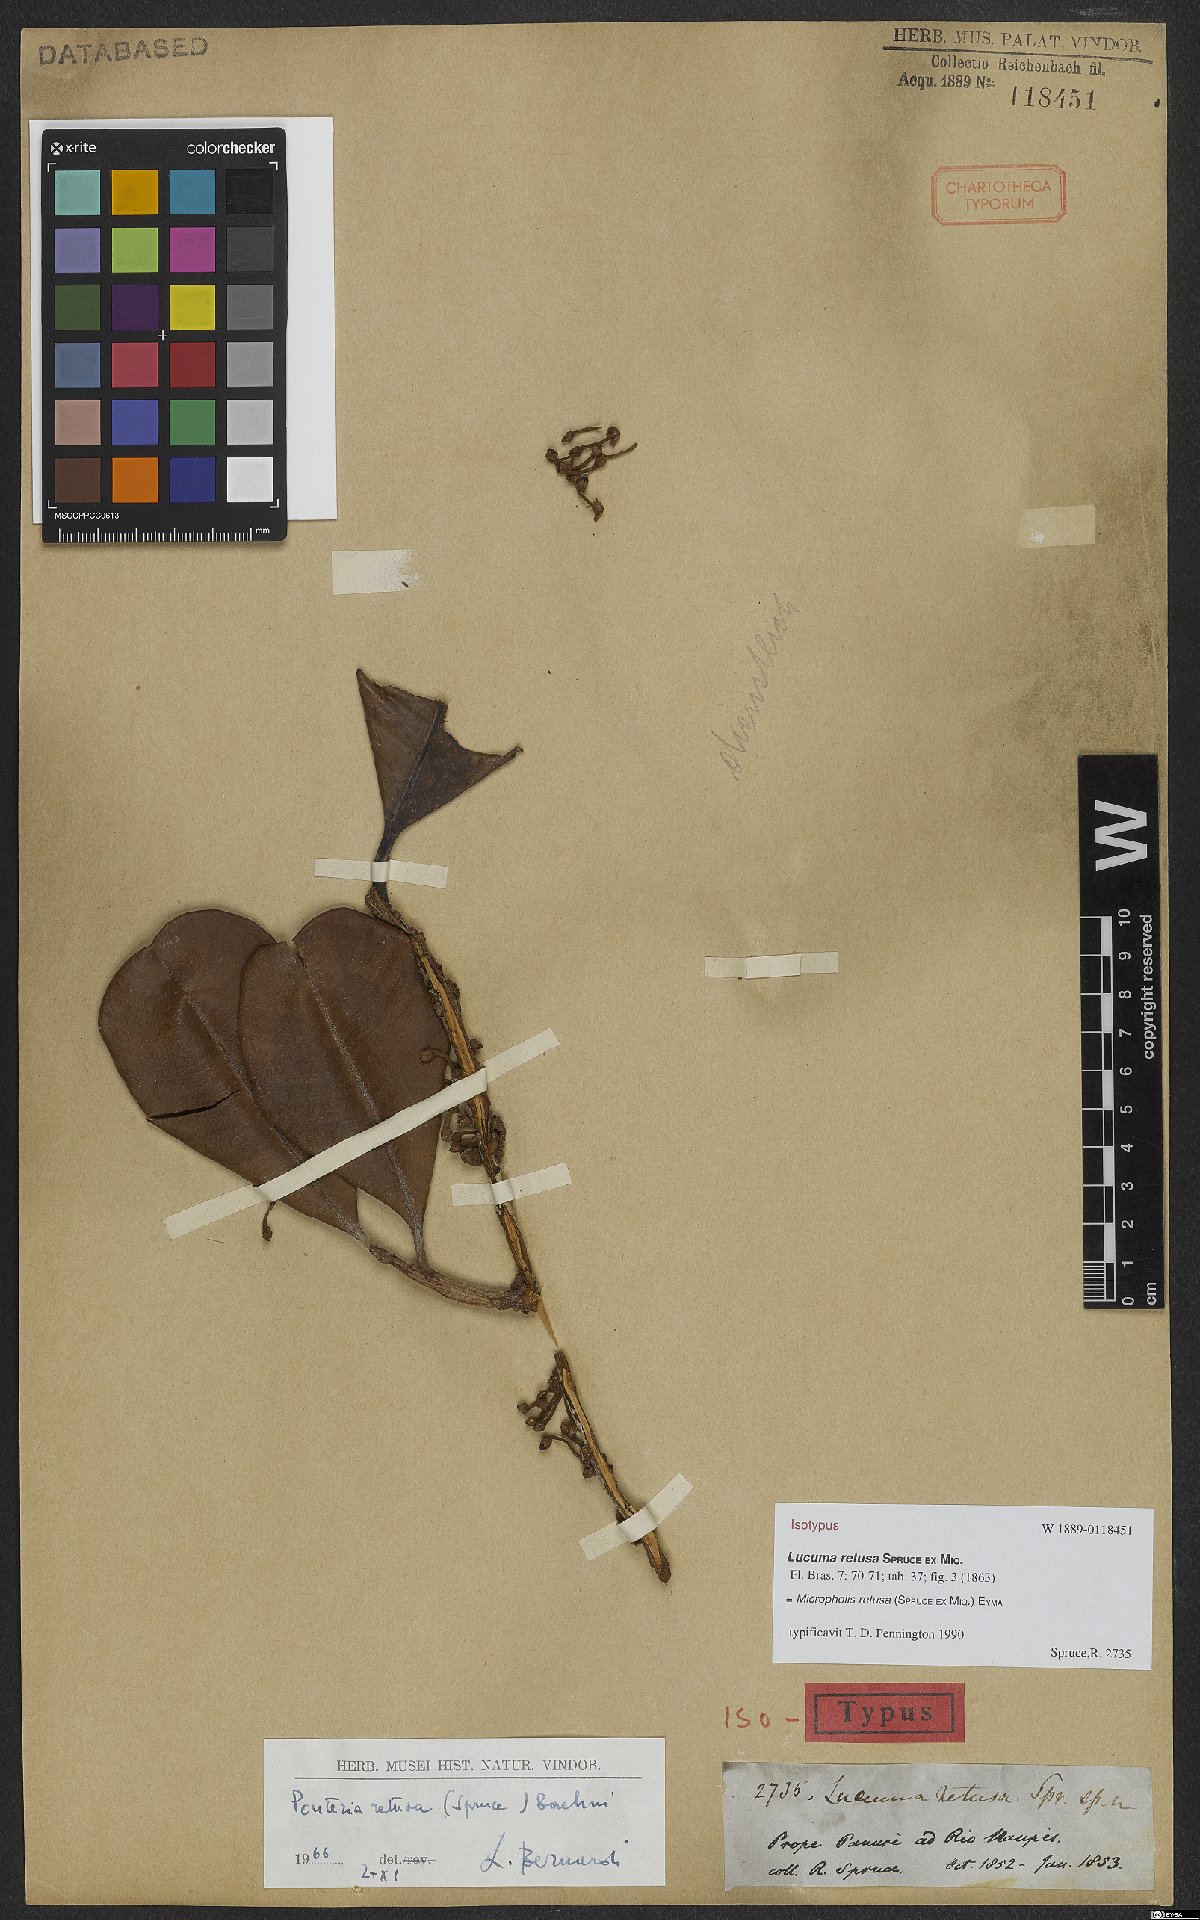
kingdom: Plantae
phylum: Tracheophyta
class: Magnoliopsida
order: Ericales
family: Sapotaceae
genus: Micropholis
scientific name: Micropholis retusa
